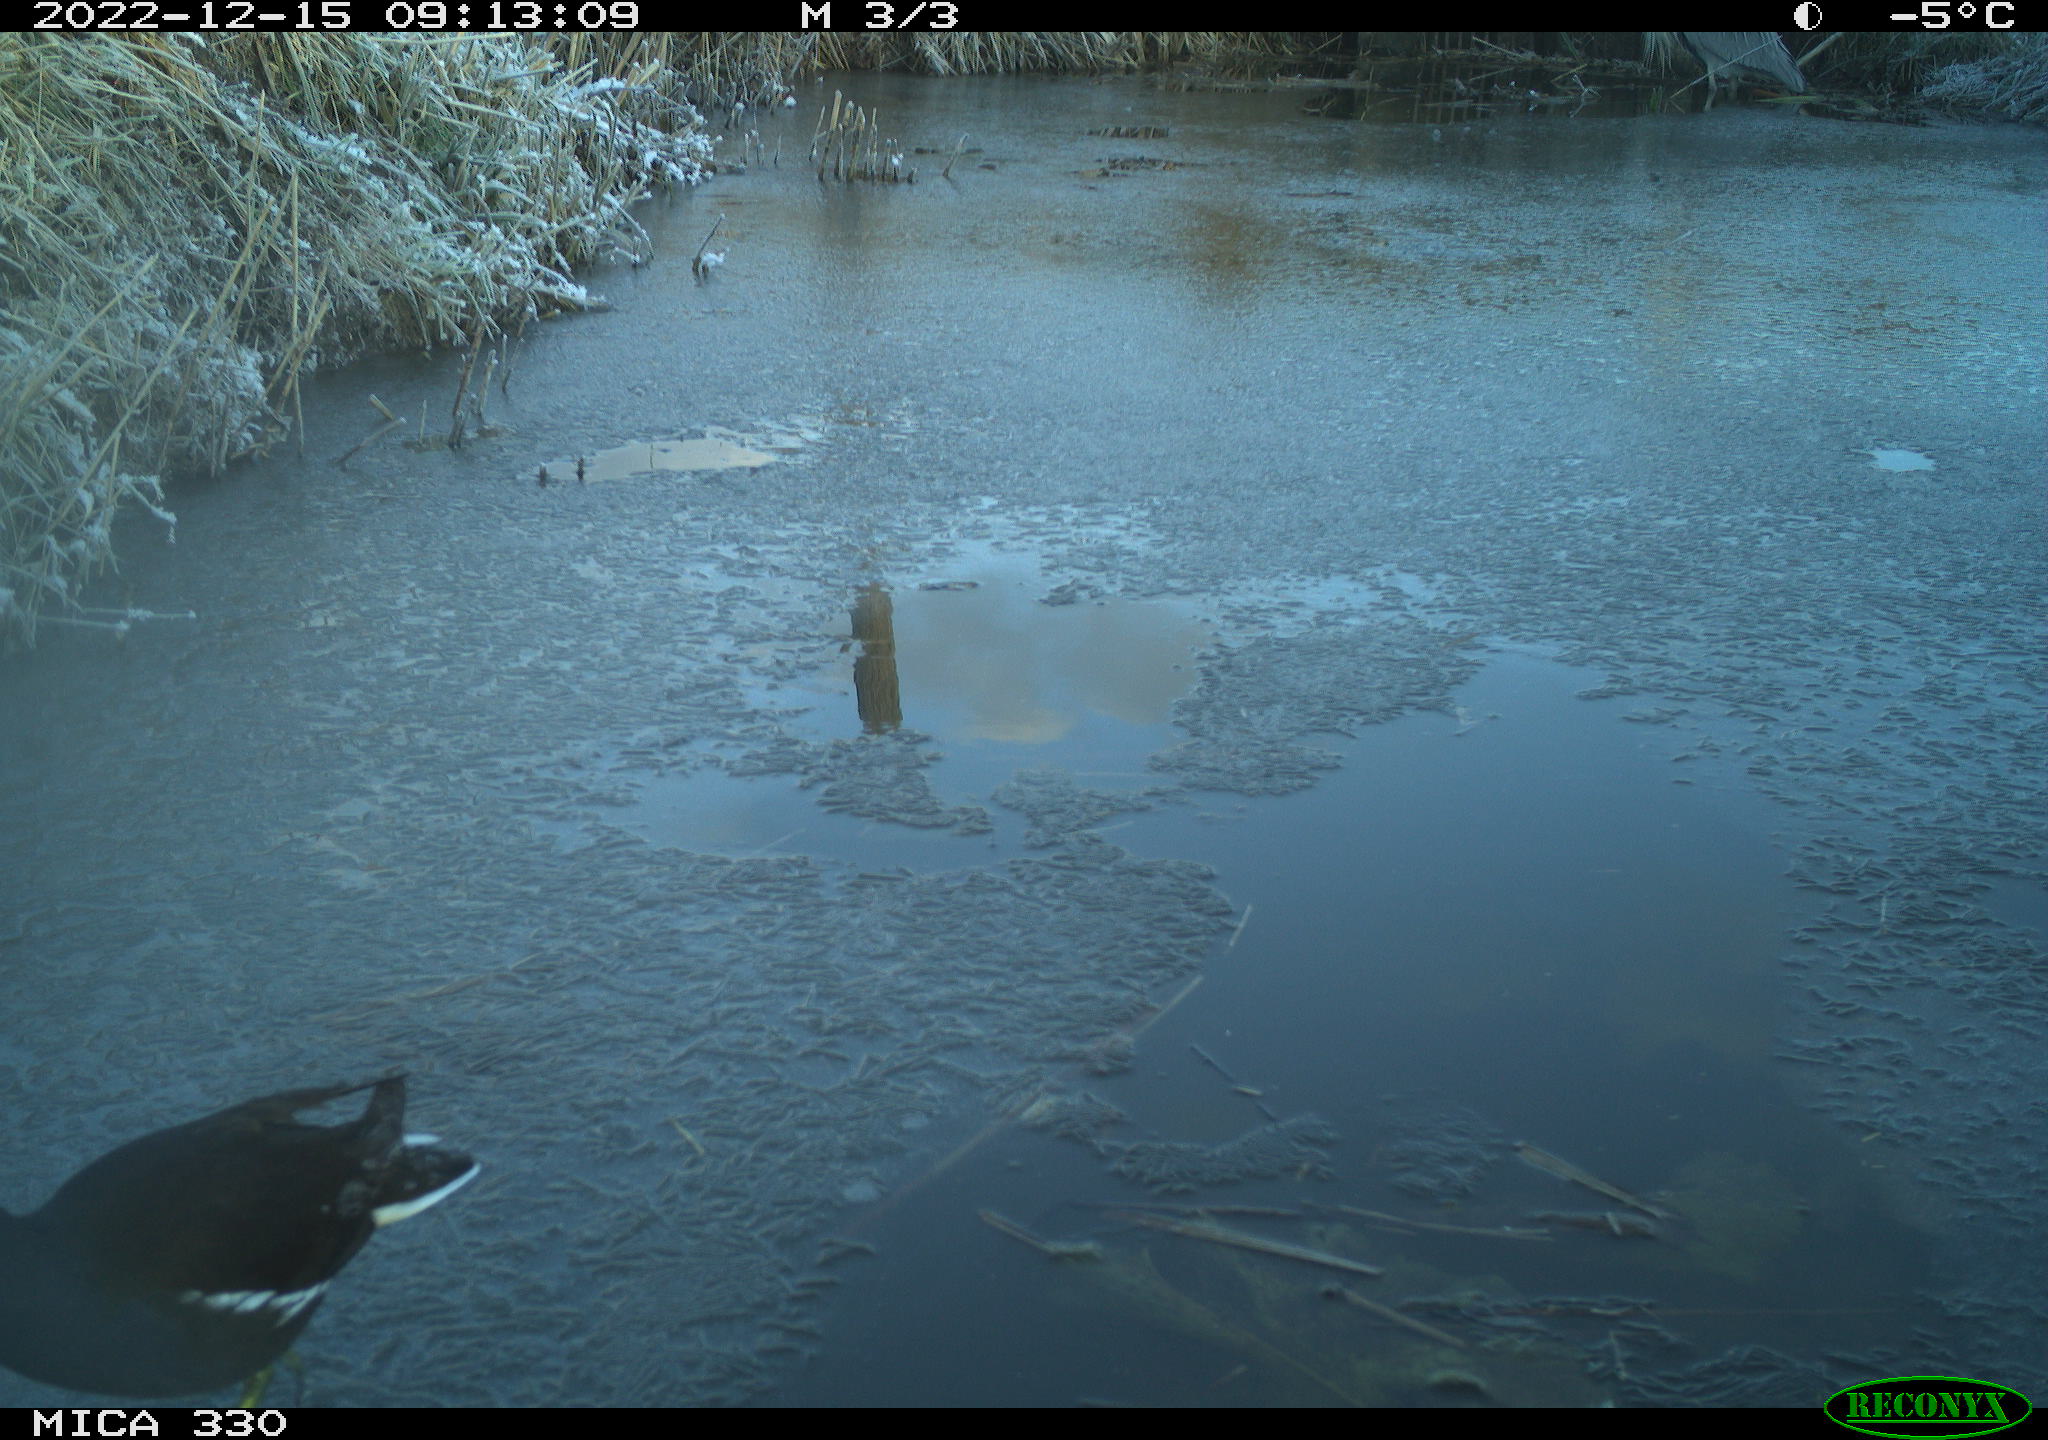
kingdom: Animalia
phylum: Chordata
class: Aves
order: Gruiformes
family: Rallidae
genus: Gallinula
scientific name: Gallinula chloropus
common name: Common moorhen
